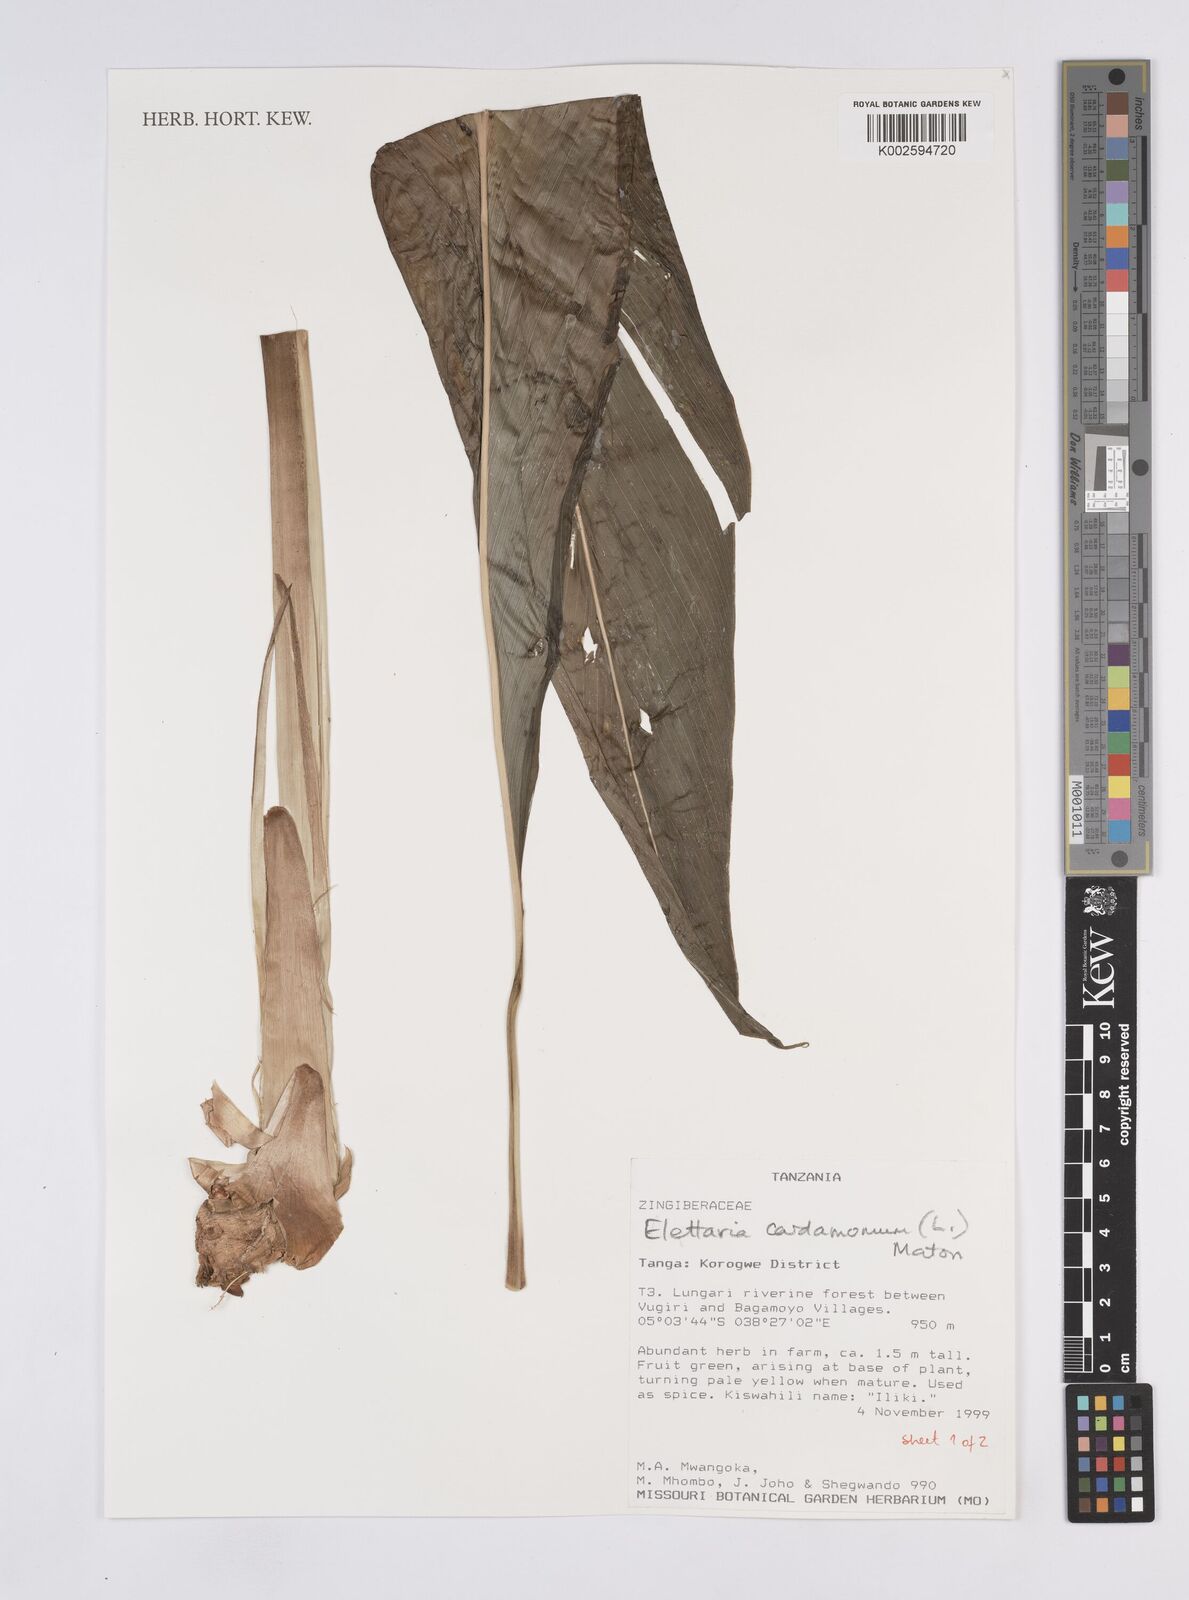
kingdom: Plantae
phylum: Tracheophyta
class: Liliopsida
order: Zingiberales
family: Zingiberaceae
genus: Elettaria
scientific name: Elettaria cardamomum
